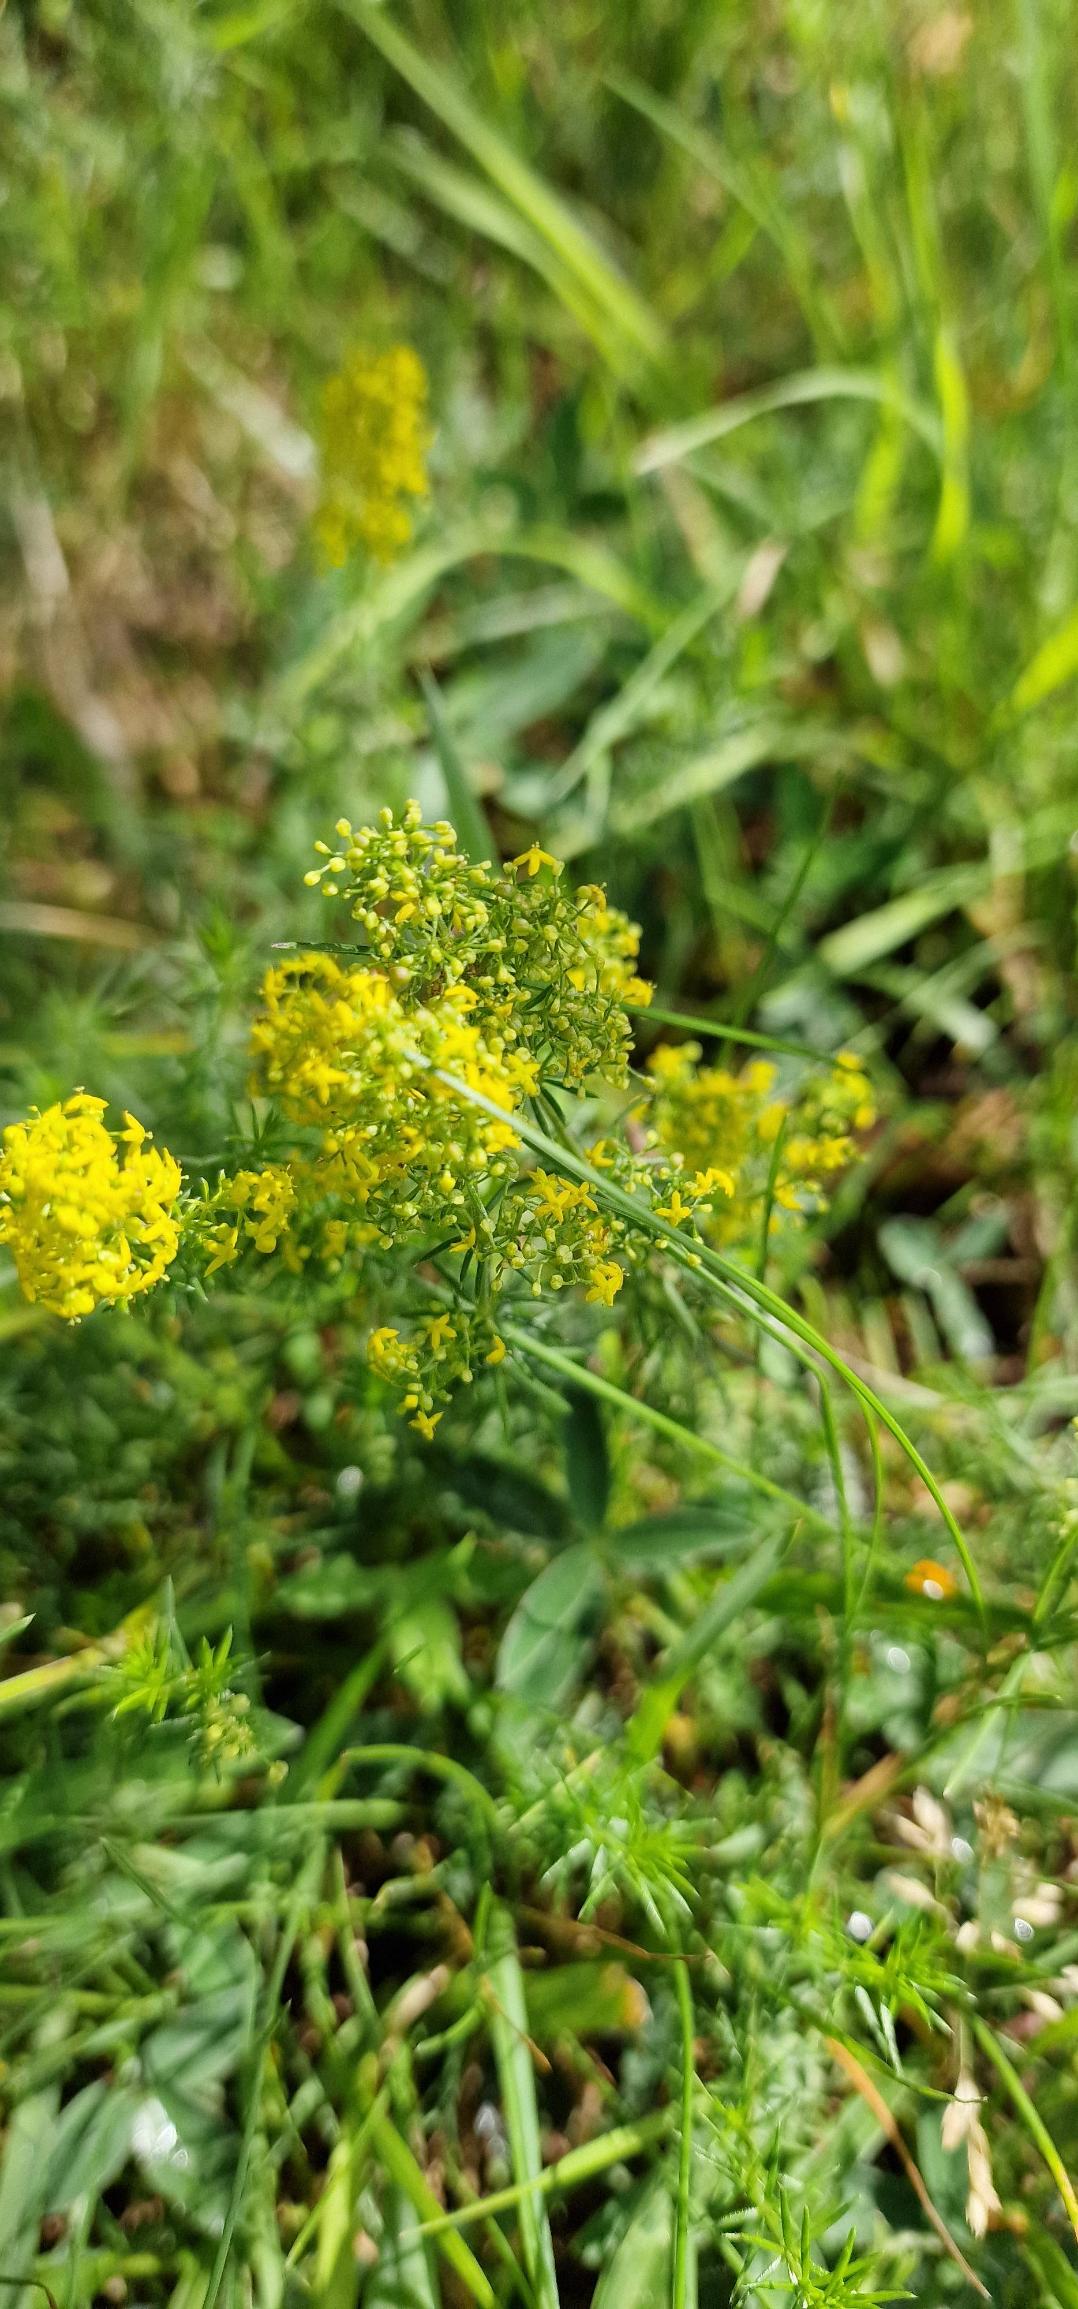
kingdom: Plantae
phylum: Tracheophyta
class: Magnoliopsida
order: Gentianales
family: Rubiaceae
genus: Galium
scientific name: Galium verum
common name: Gul snerre
